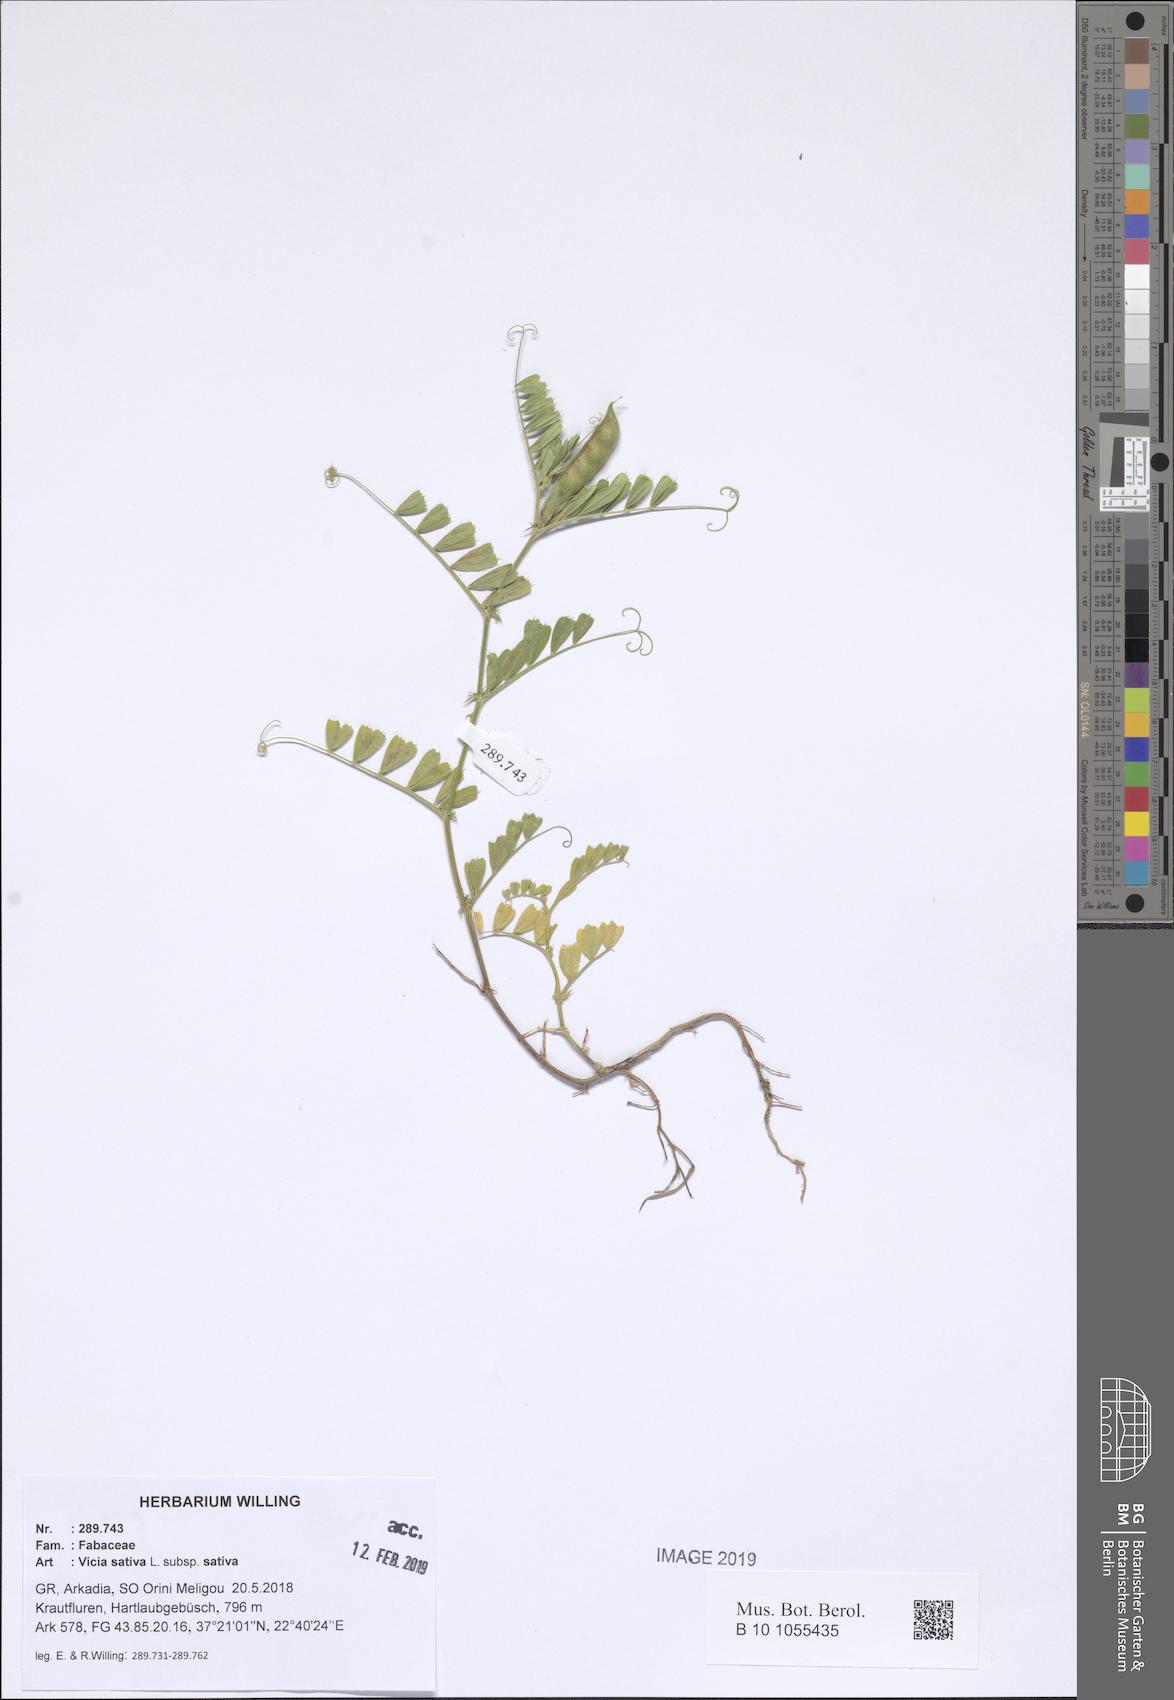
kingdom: Plantae
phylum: Tracheophyta
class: Magnoliopsida
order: Fabales
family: Fabaceae
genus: Vicia
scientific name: Vicia sativa
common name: Garden vetch
